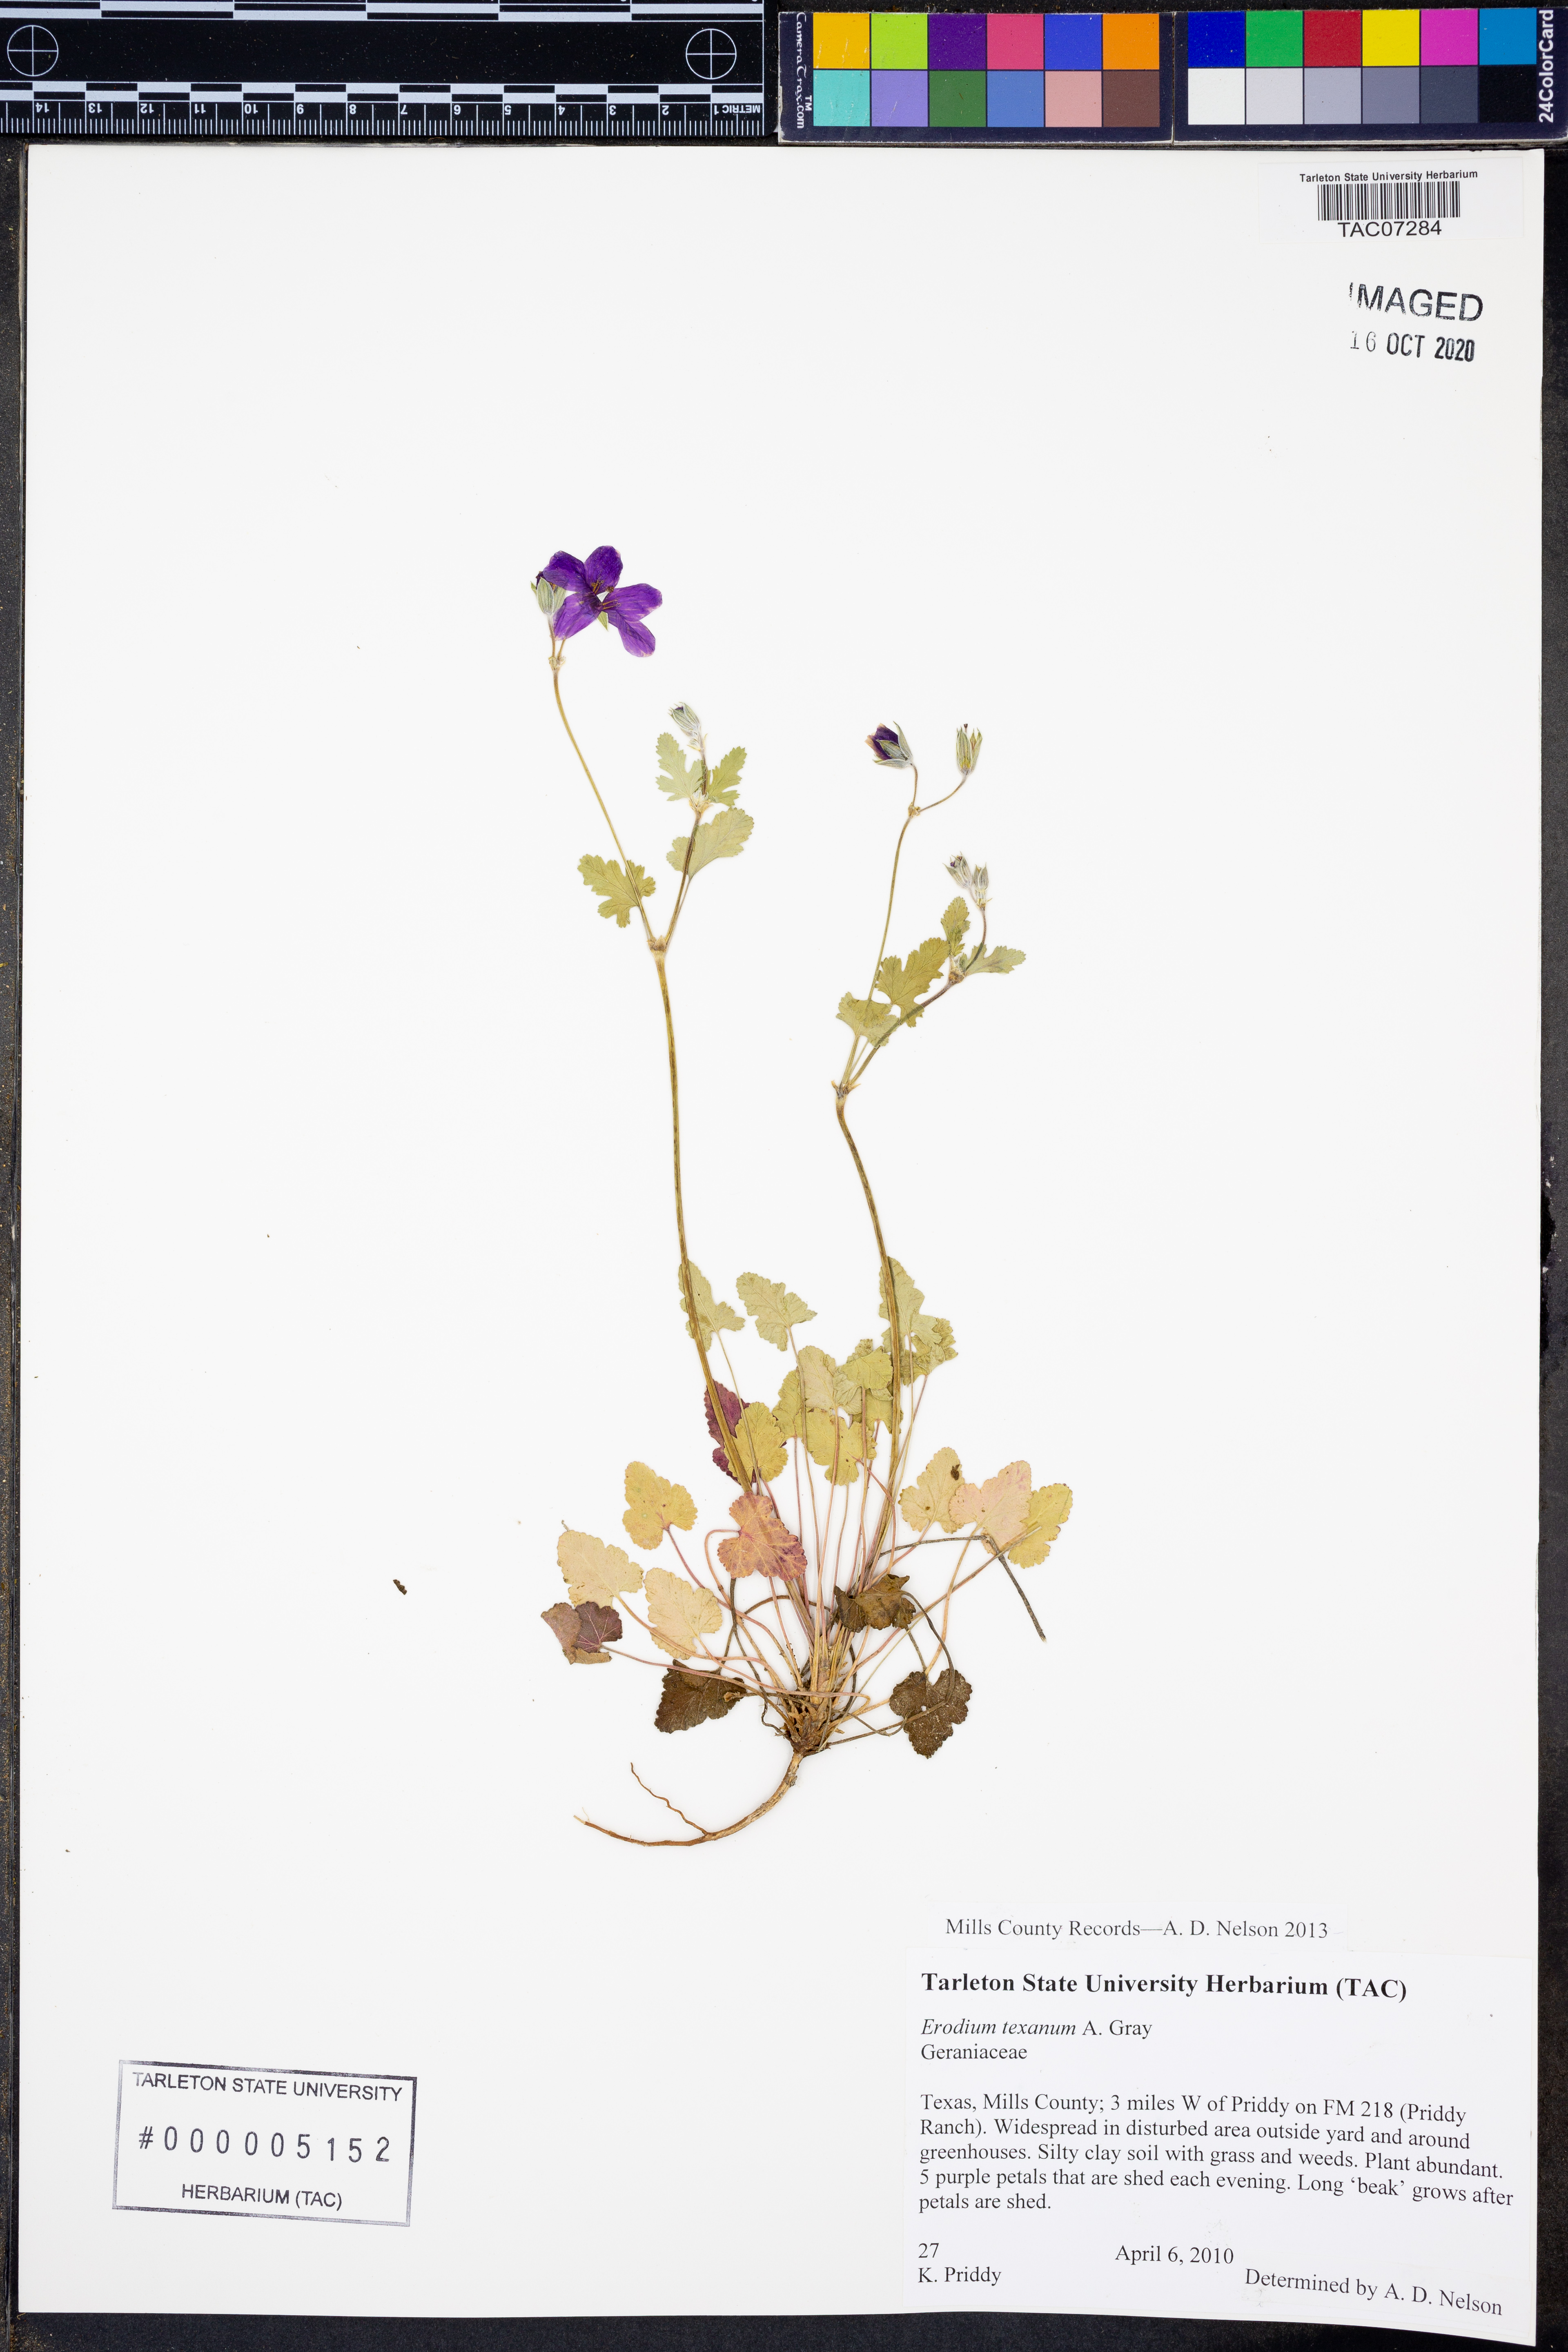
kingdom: Plantae
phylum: Tracheophyta
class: Magnoliopsida
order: Geraniales
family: Geraniaceae
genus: Erodium
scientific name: Erodium texanum
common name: Texas stork's-bill
